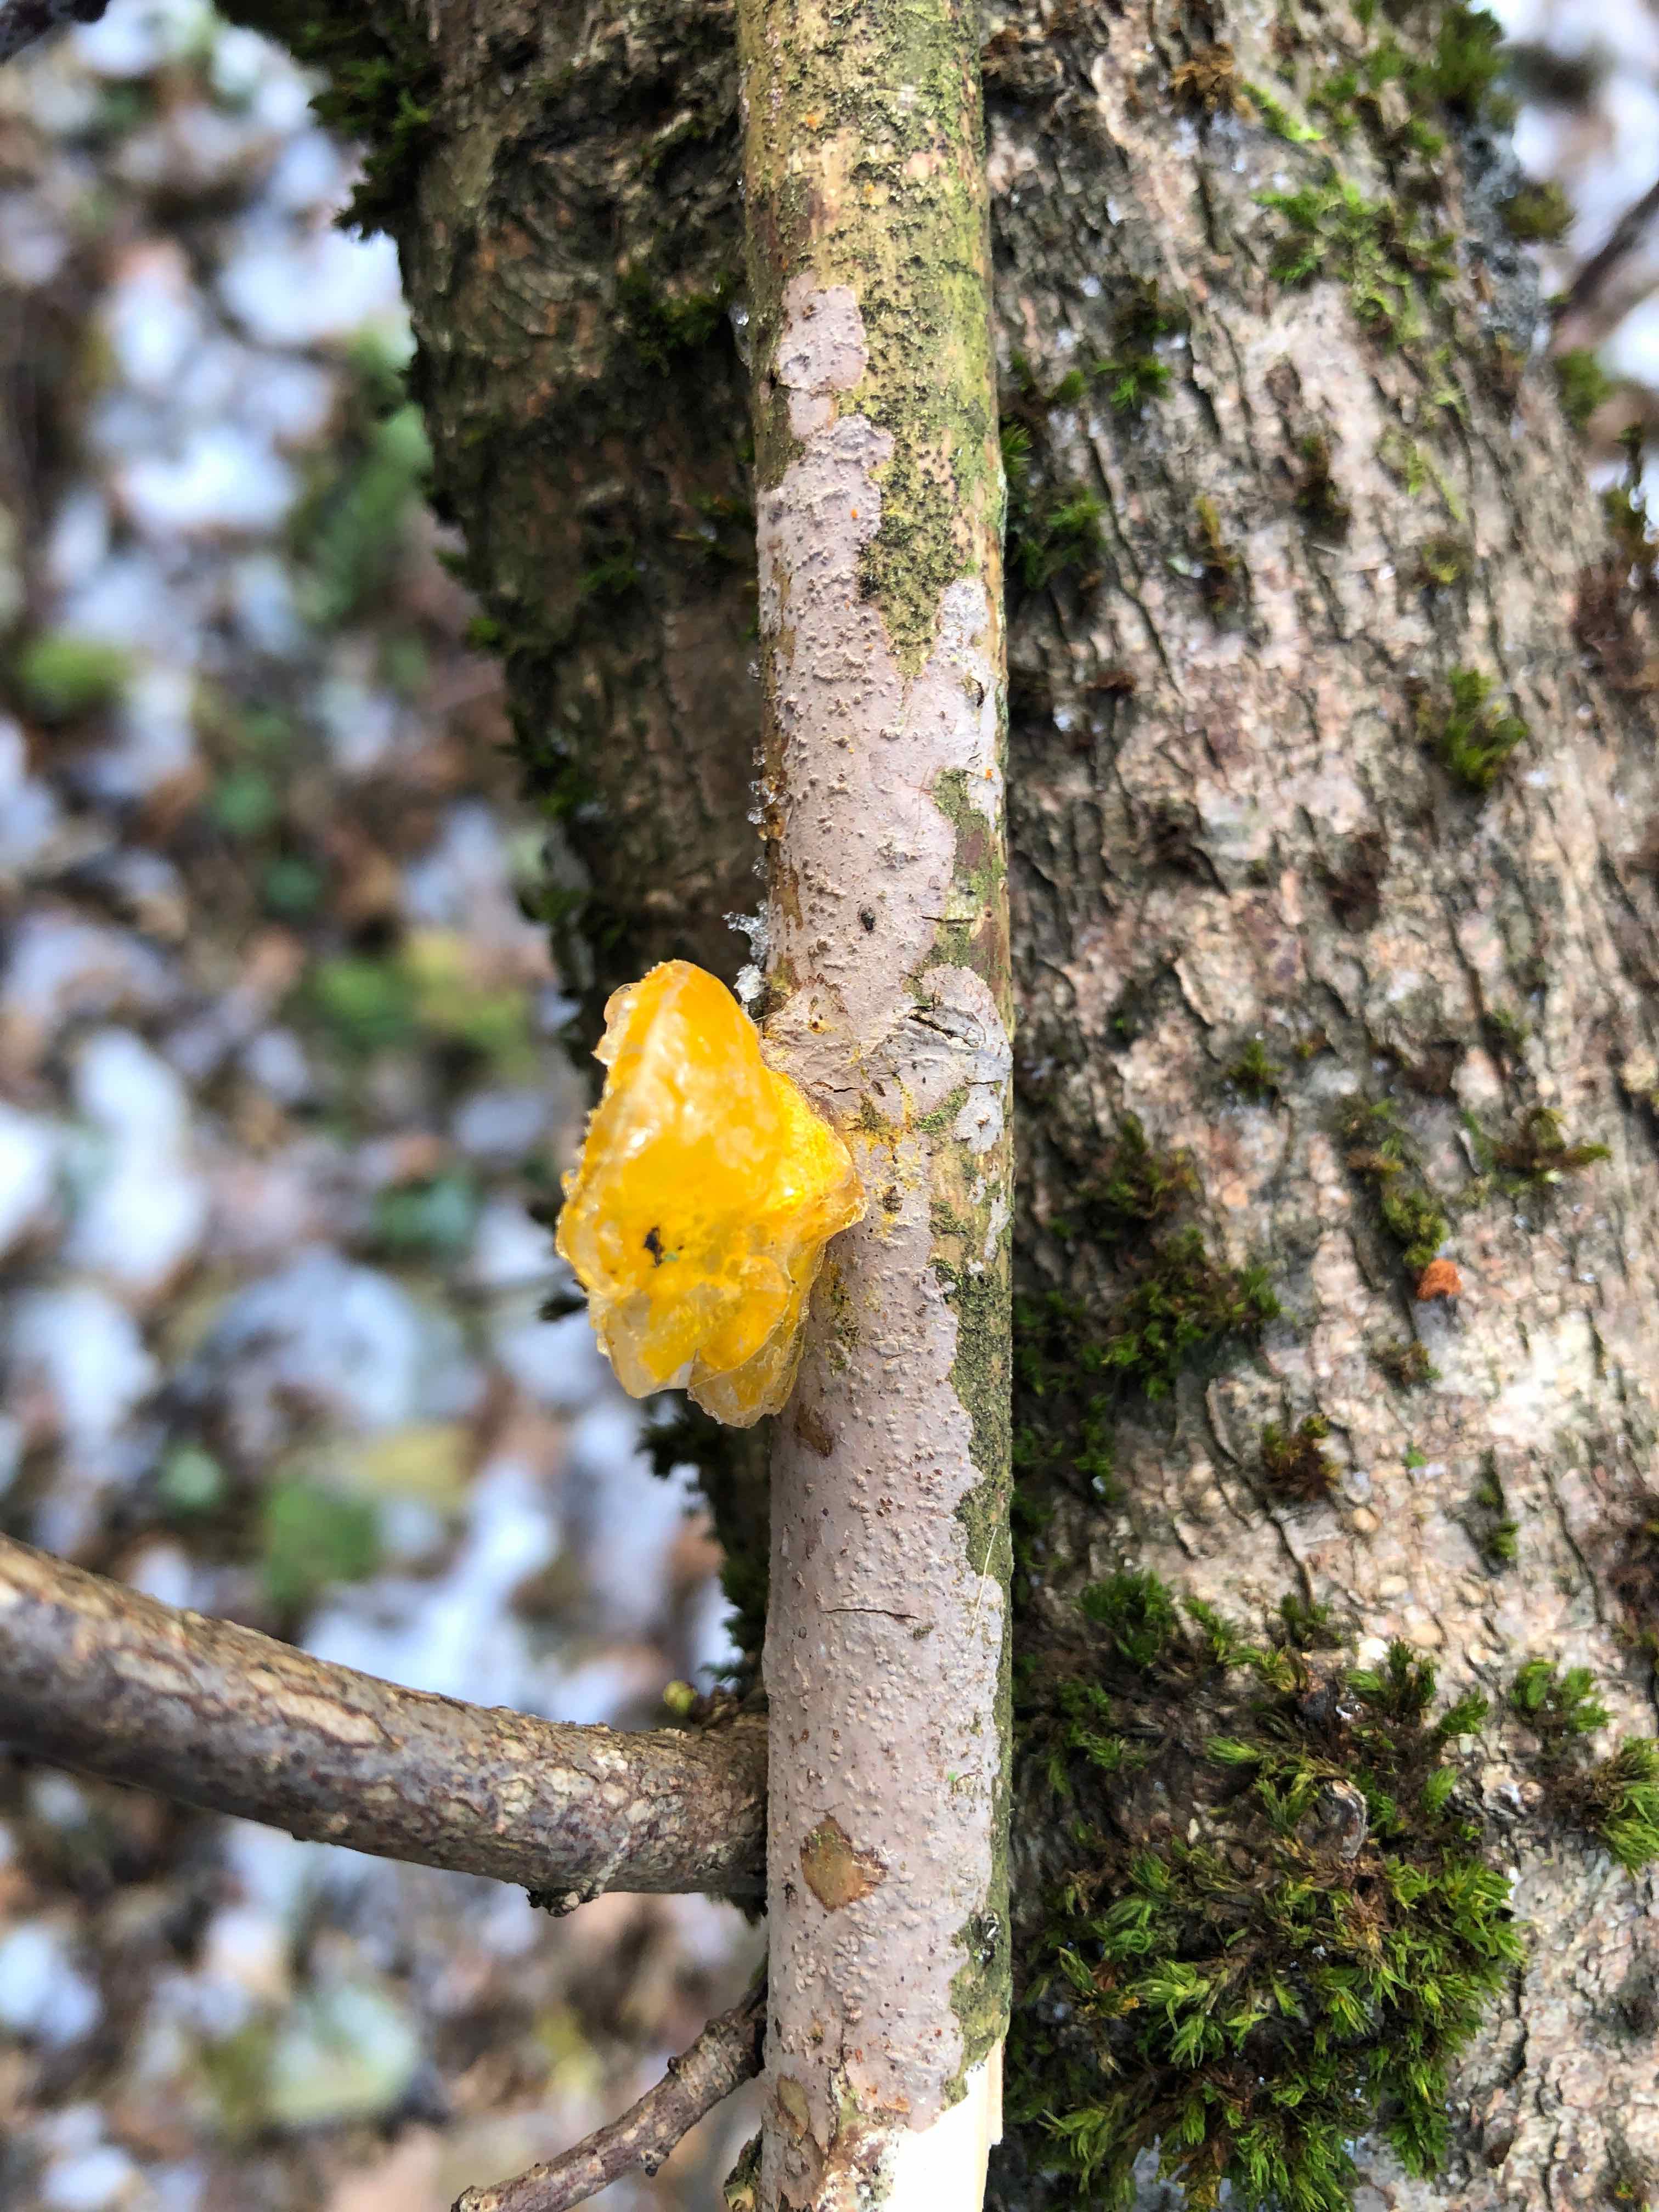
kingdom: Fungi
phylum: Basidiomycota
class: Tremellomycetes
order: Tremellales
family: Tremellaceae
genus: Tremella
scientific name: Tremella mesenterica
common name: gul bævresvamp
